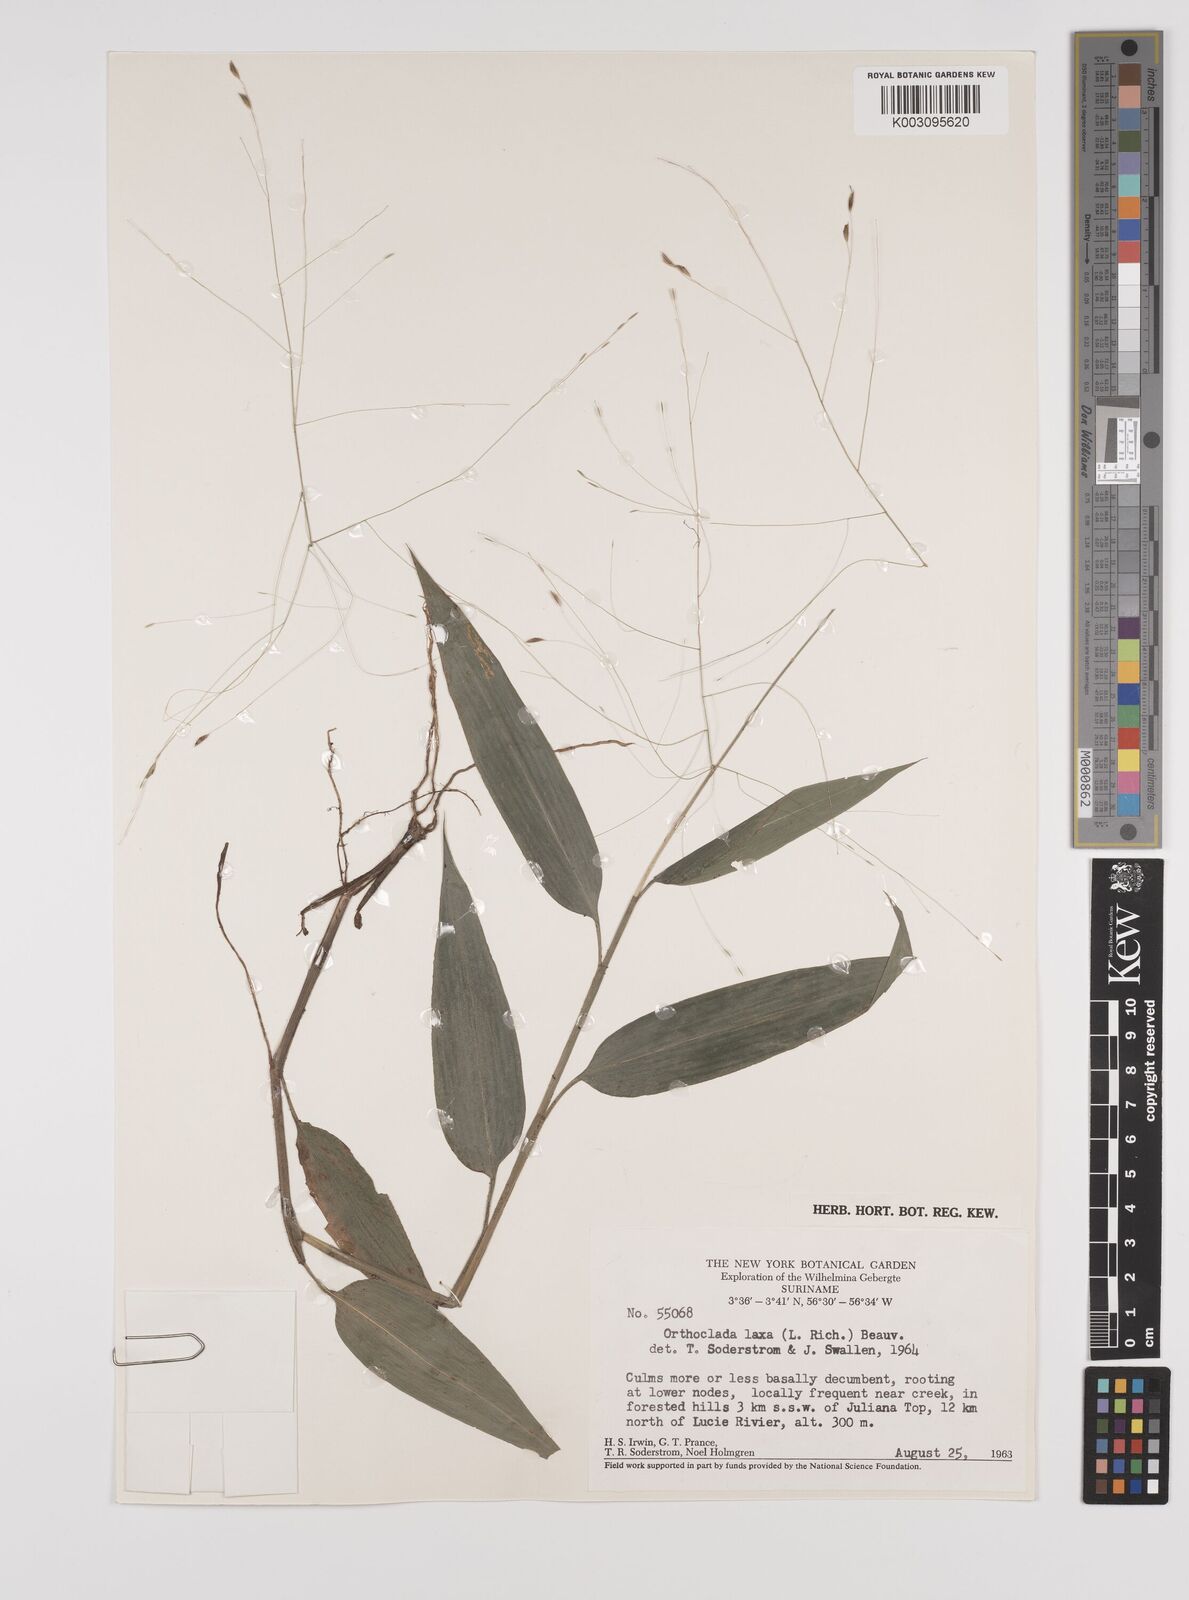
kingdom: Plantae
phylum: Tracheophyta
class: Liliopsida
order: Poales
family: Poaceae
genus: Orthoclada
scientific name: Orthoclada laxa
